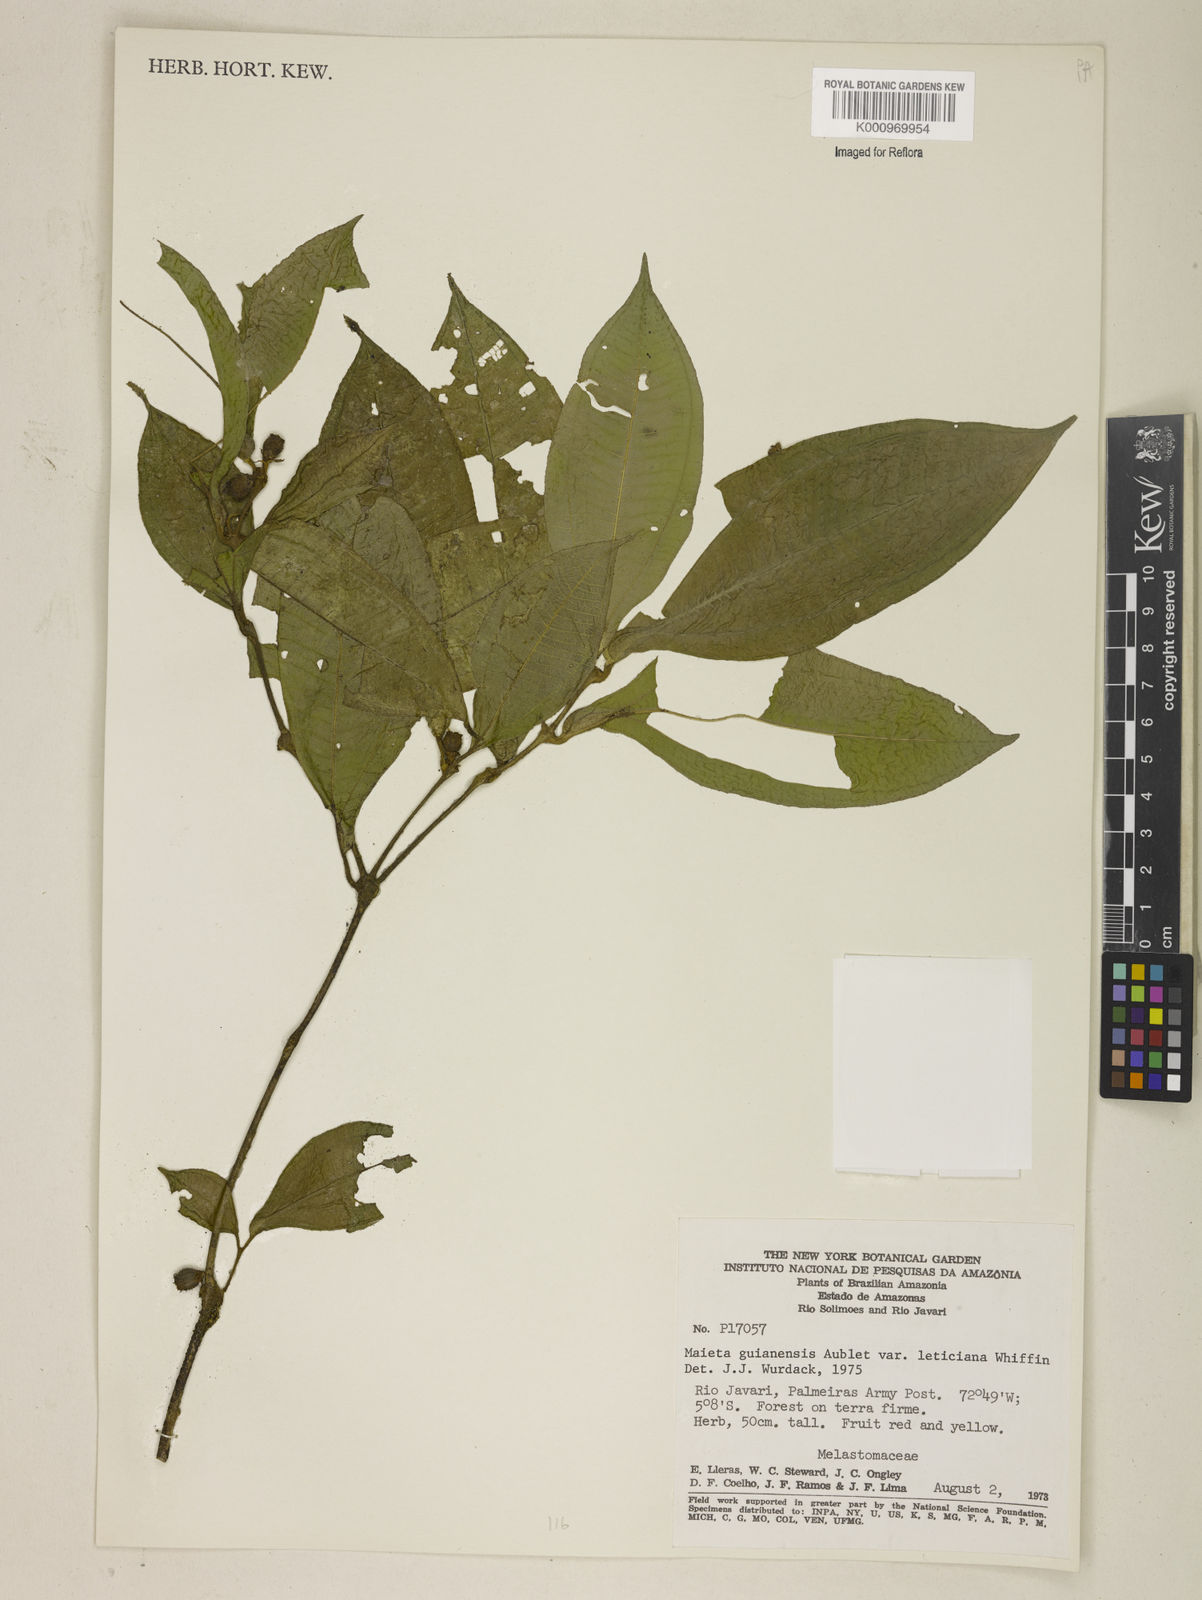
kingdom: Plantae
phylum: Tracheophyta
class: Magnoliopsida
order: Myrtales
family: Melastomataceae
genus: Miconia
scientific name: Miconia mayeta
